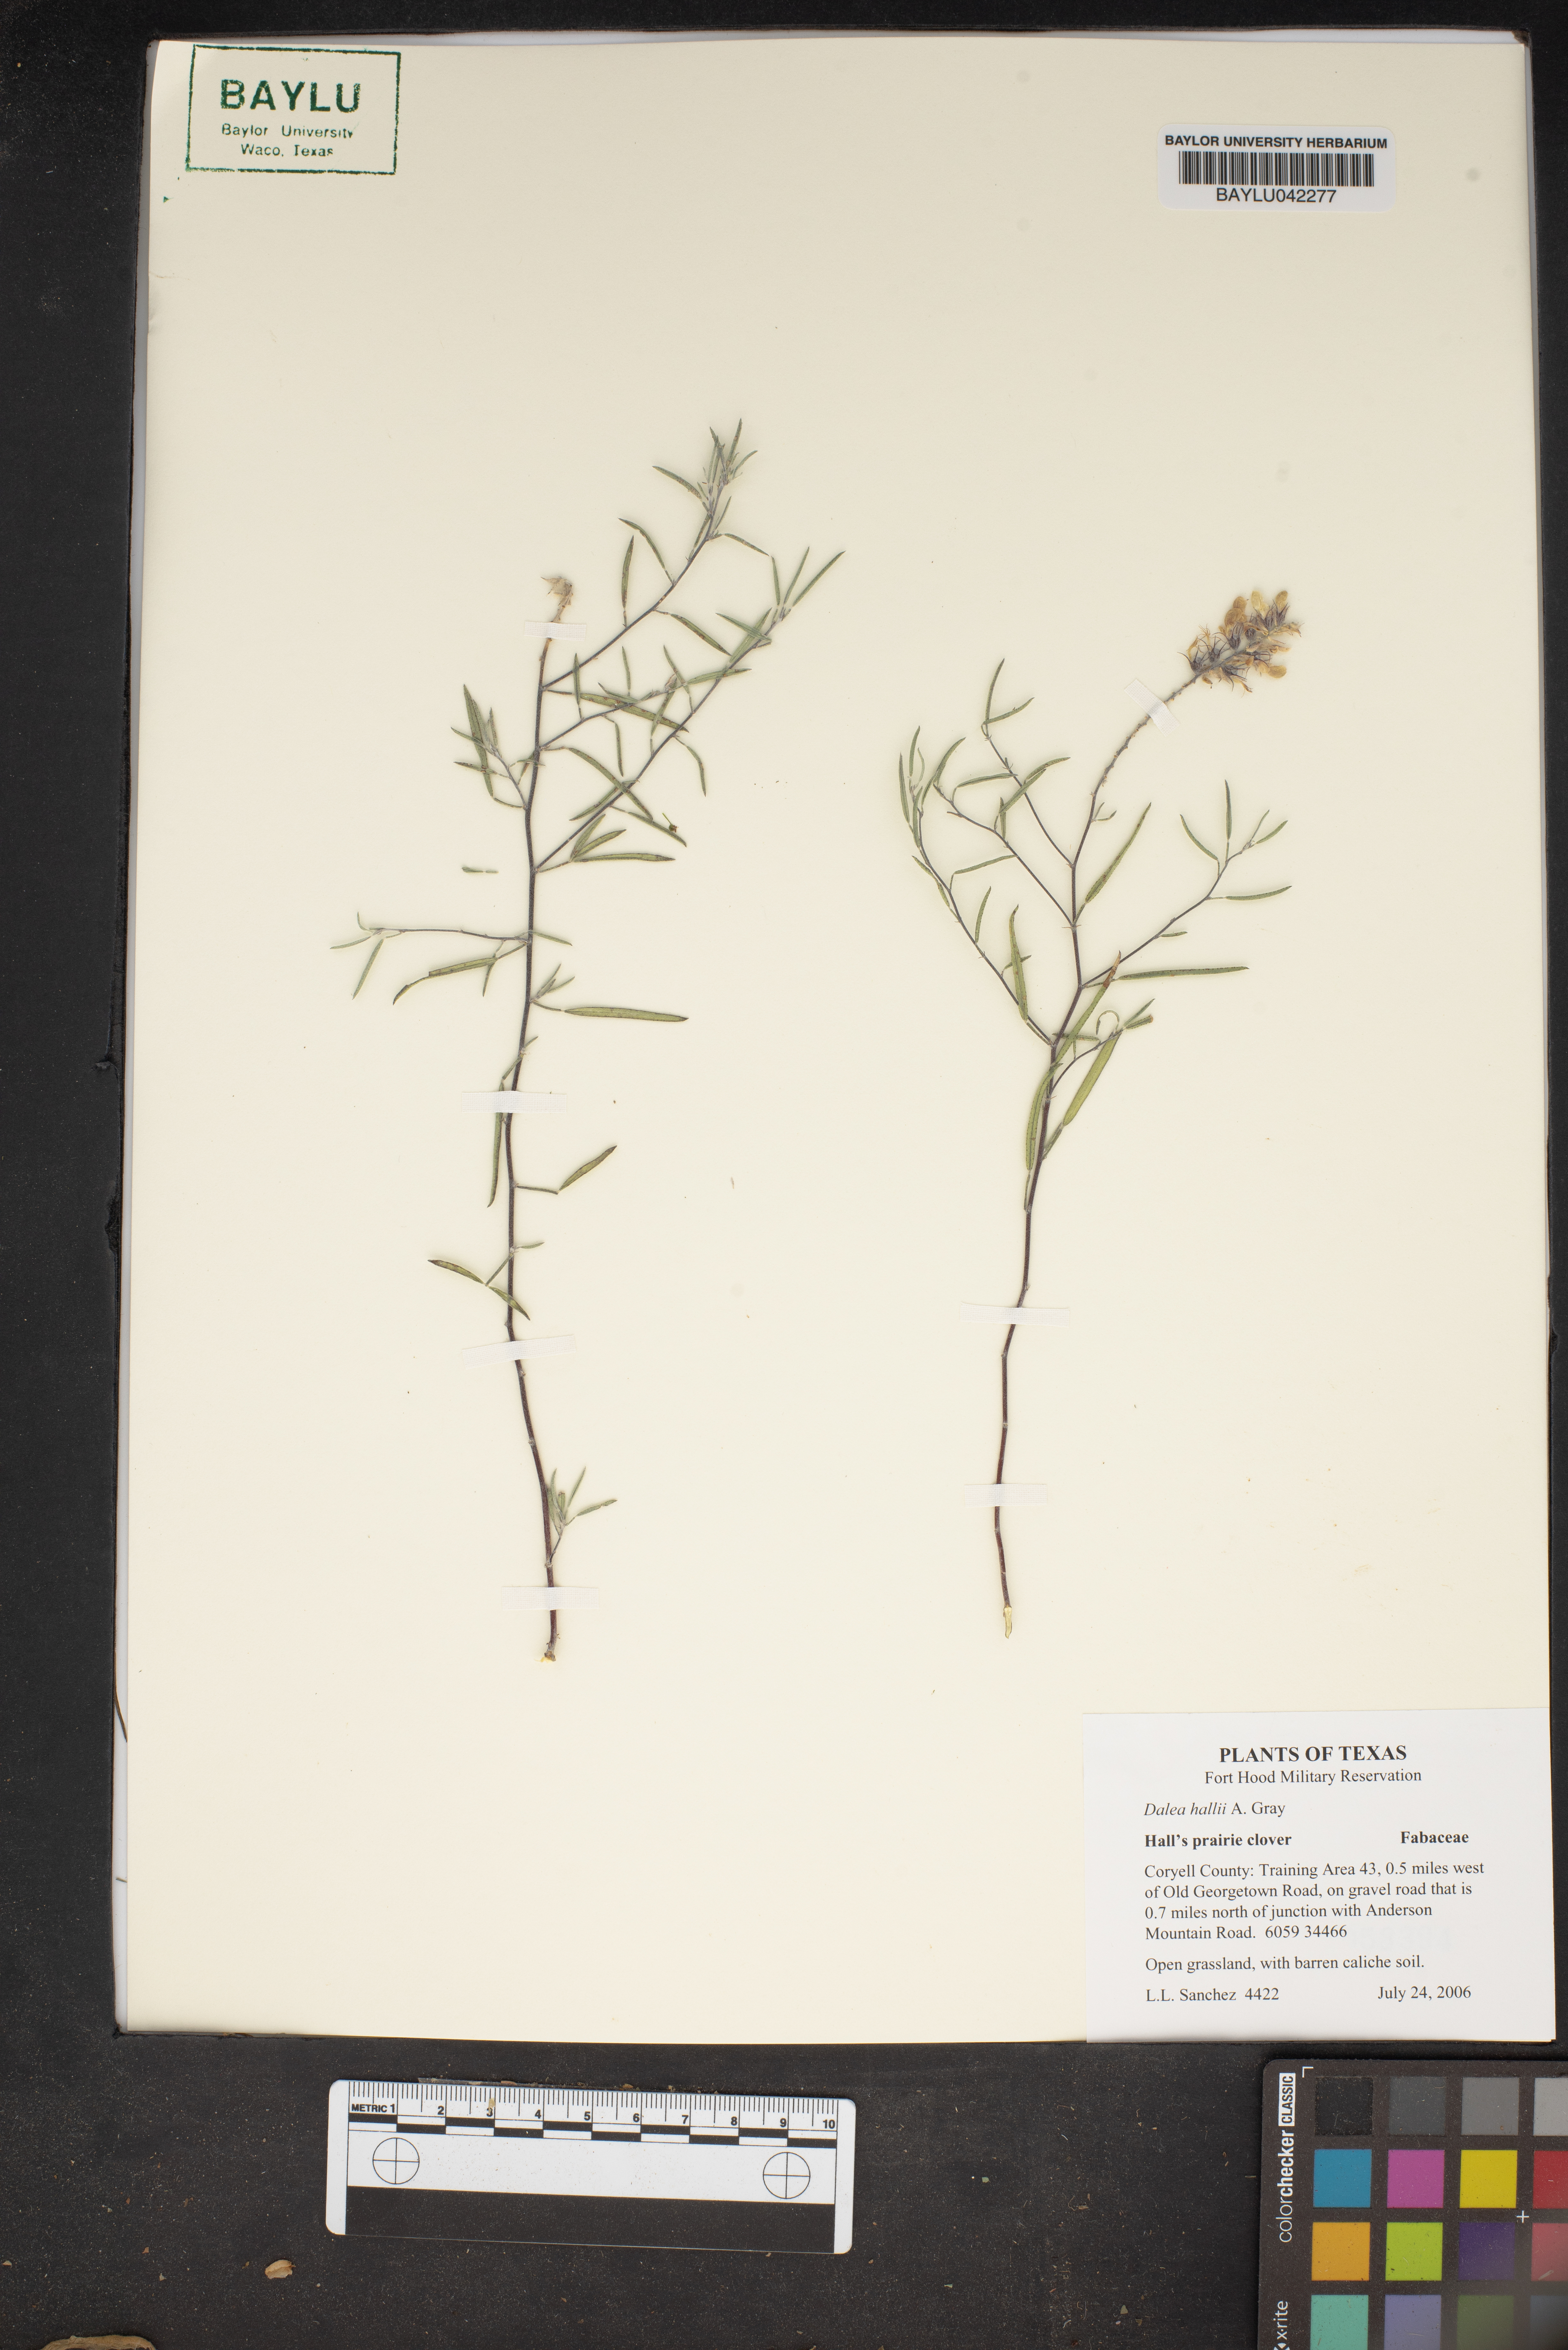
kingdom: Plantae
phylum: Tracheophyta
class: Magnoliopsida
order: Fabales
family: Fabaceae
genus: Dalea
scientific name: Dalea hallii
